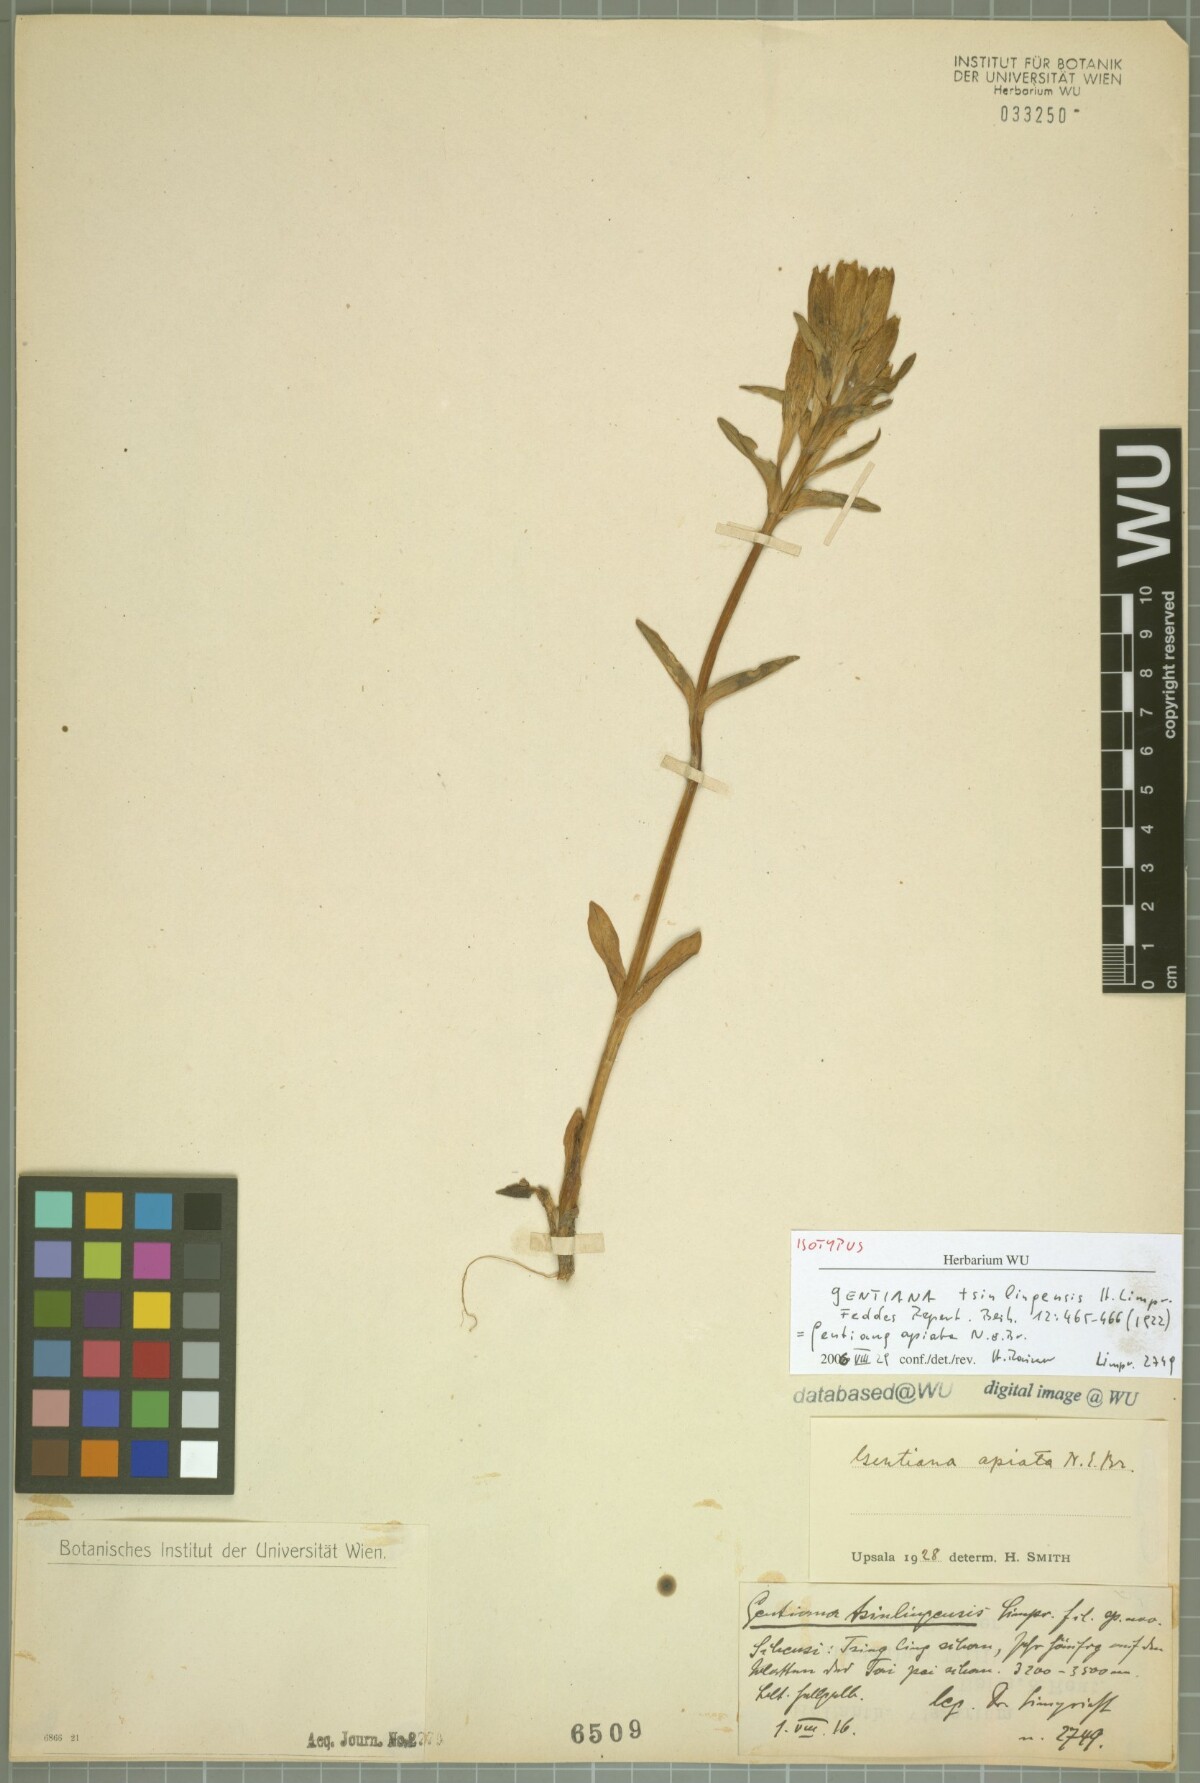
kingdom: Plantae
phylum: Tracheophyta
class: Magnoliopsida
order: Gentianales
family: Gentianaceae
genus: Gentiana
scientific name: Gentiana apiata
